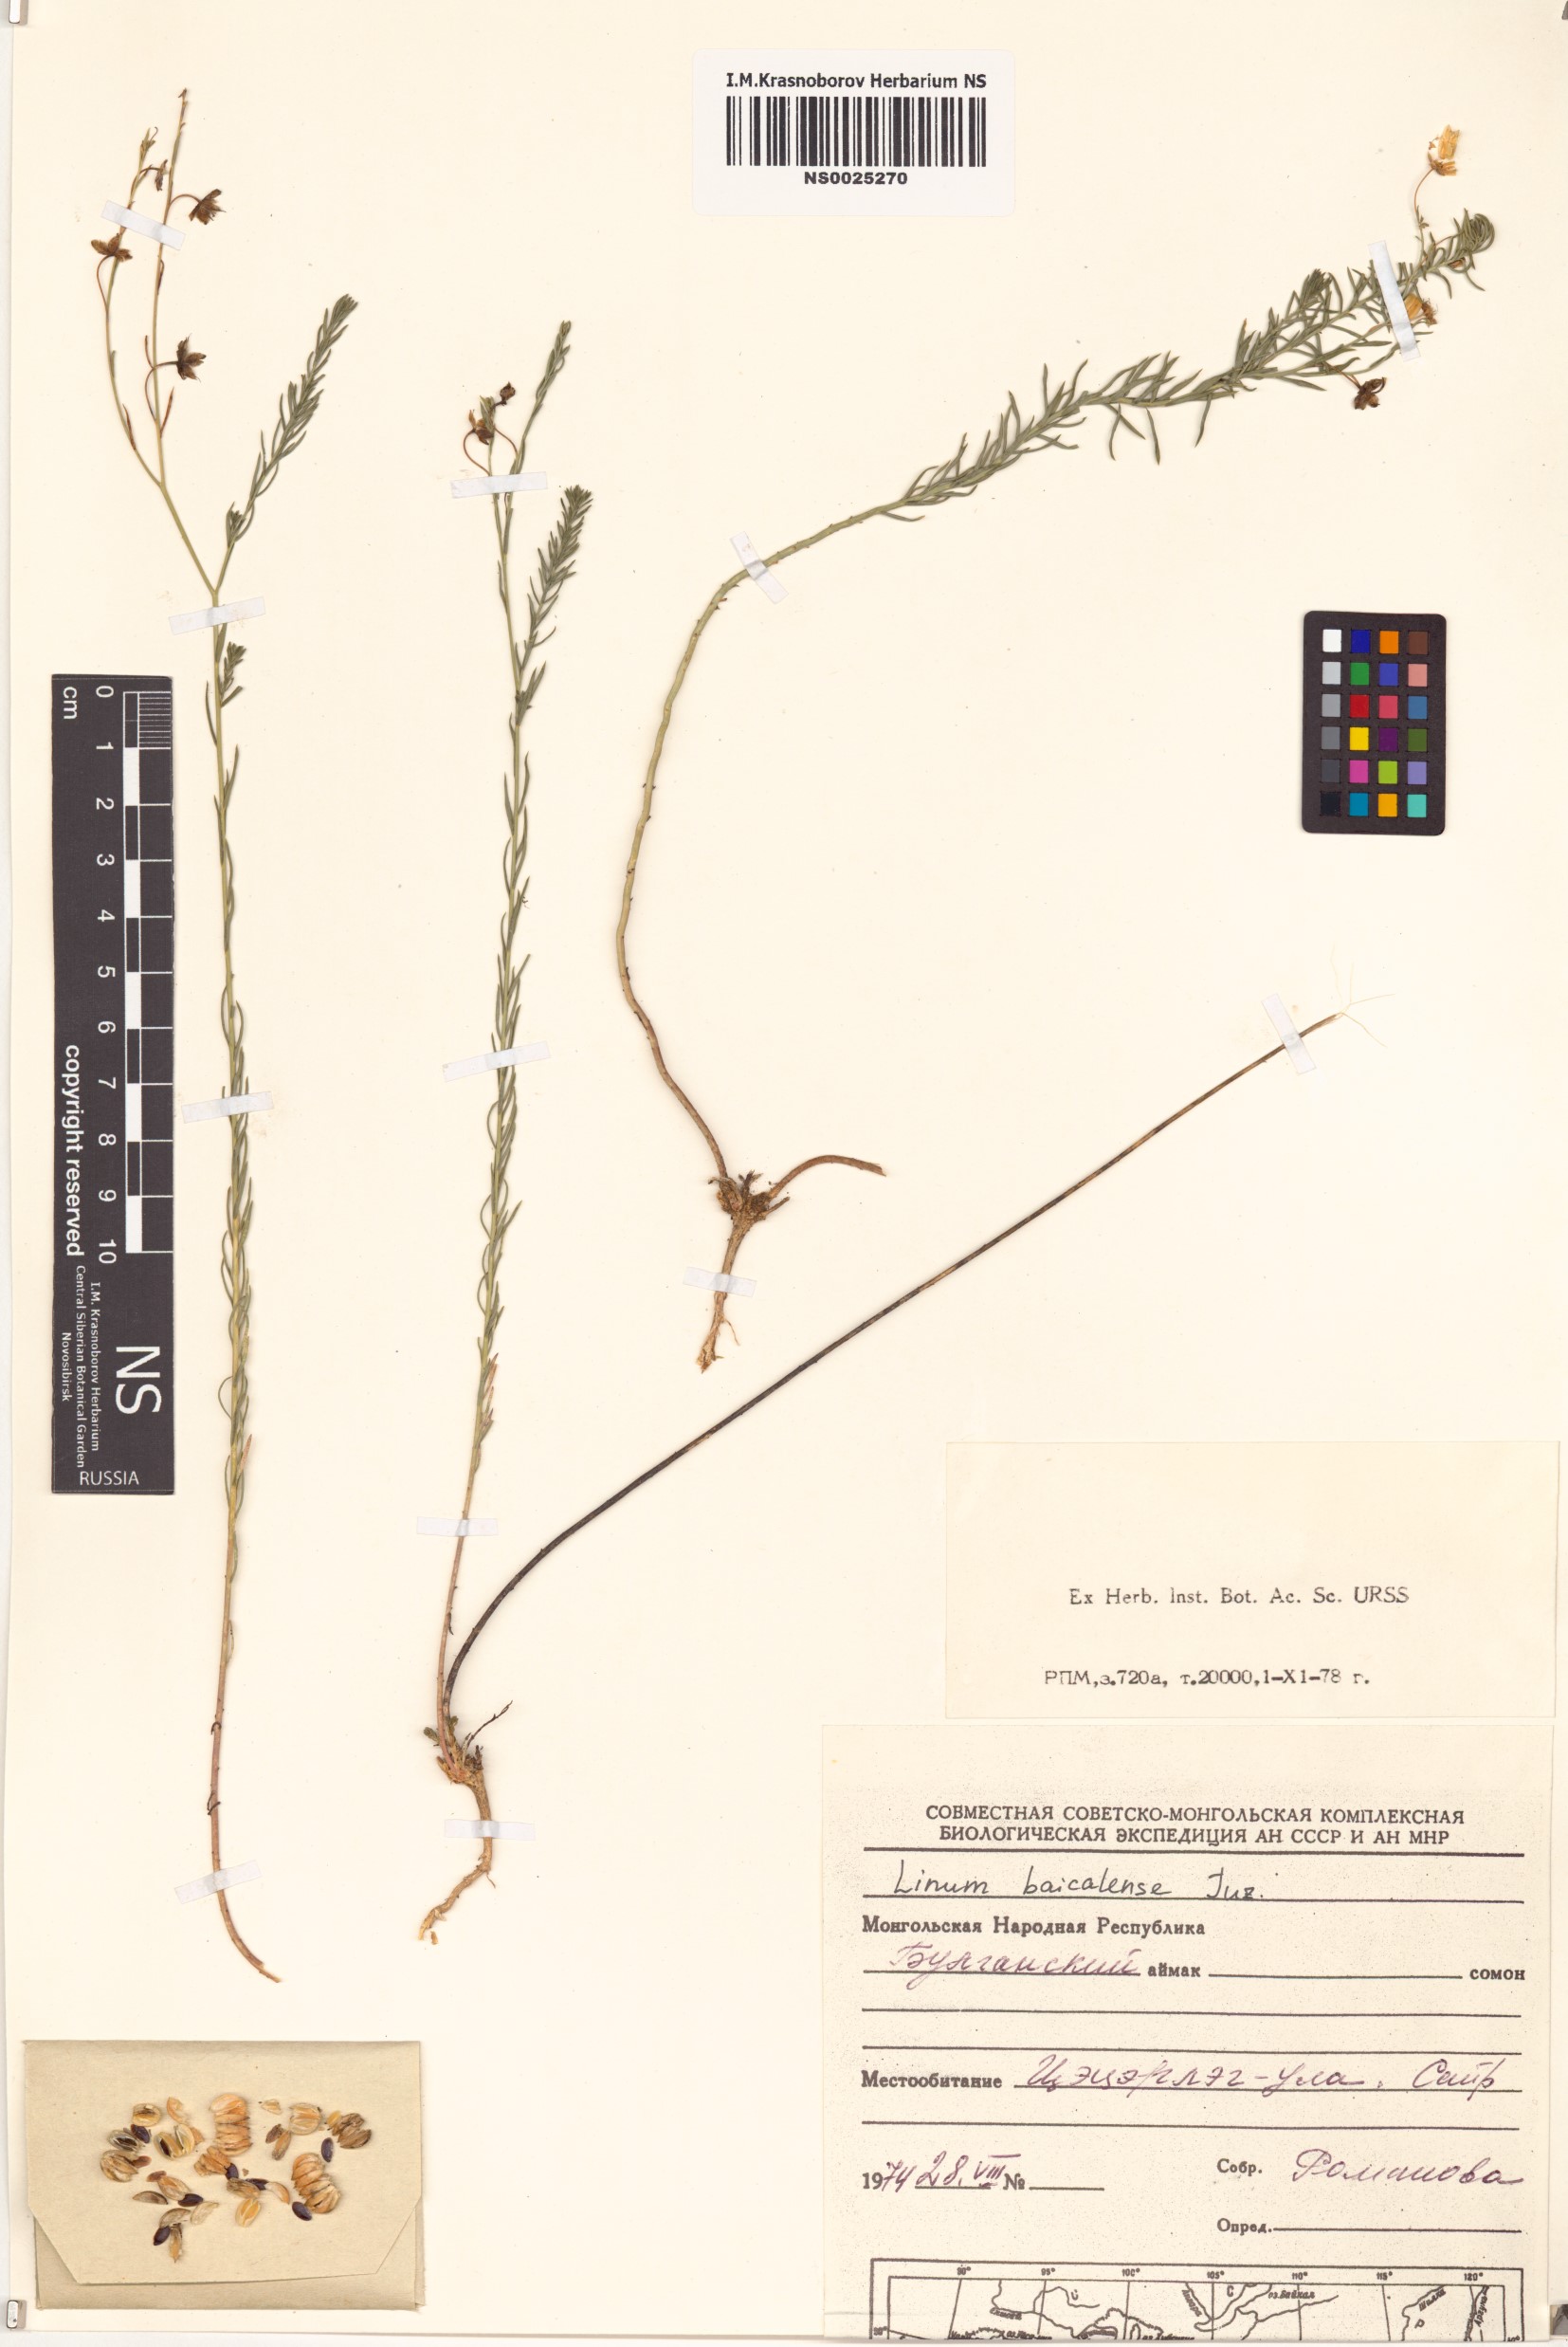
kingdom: Plantae
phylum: Tracheophyta
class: Magnoliopsida
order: Malpighiales
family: Linaceae
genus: Linum
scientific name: Linum nutans
